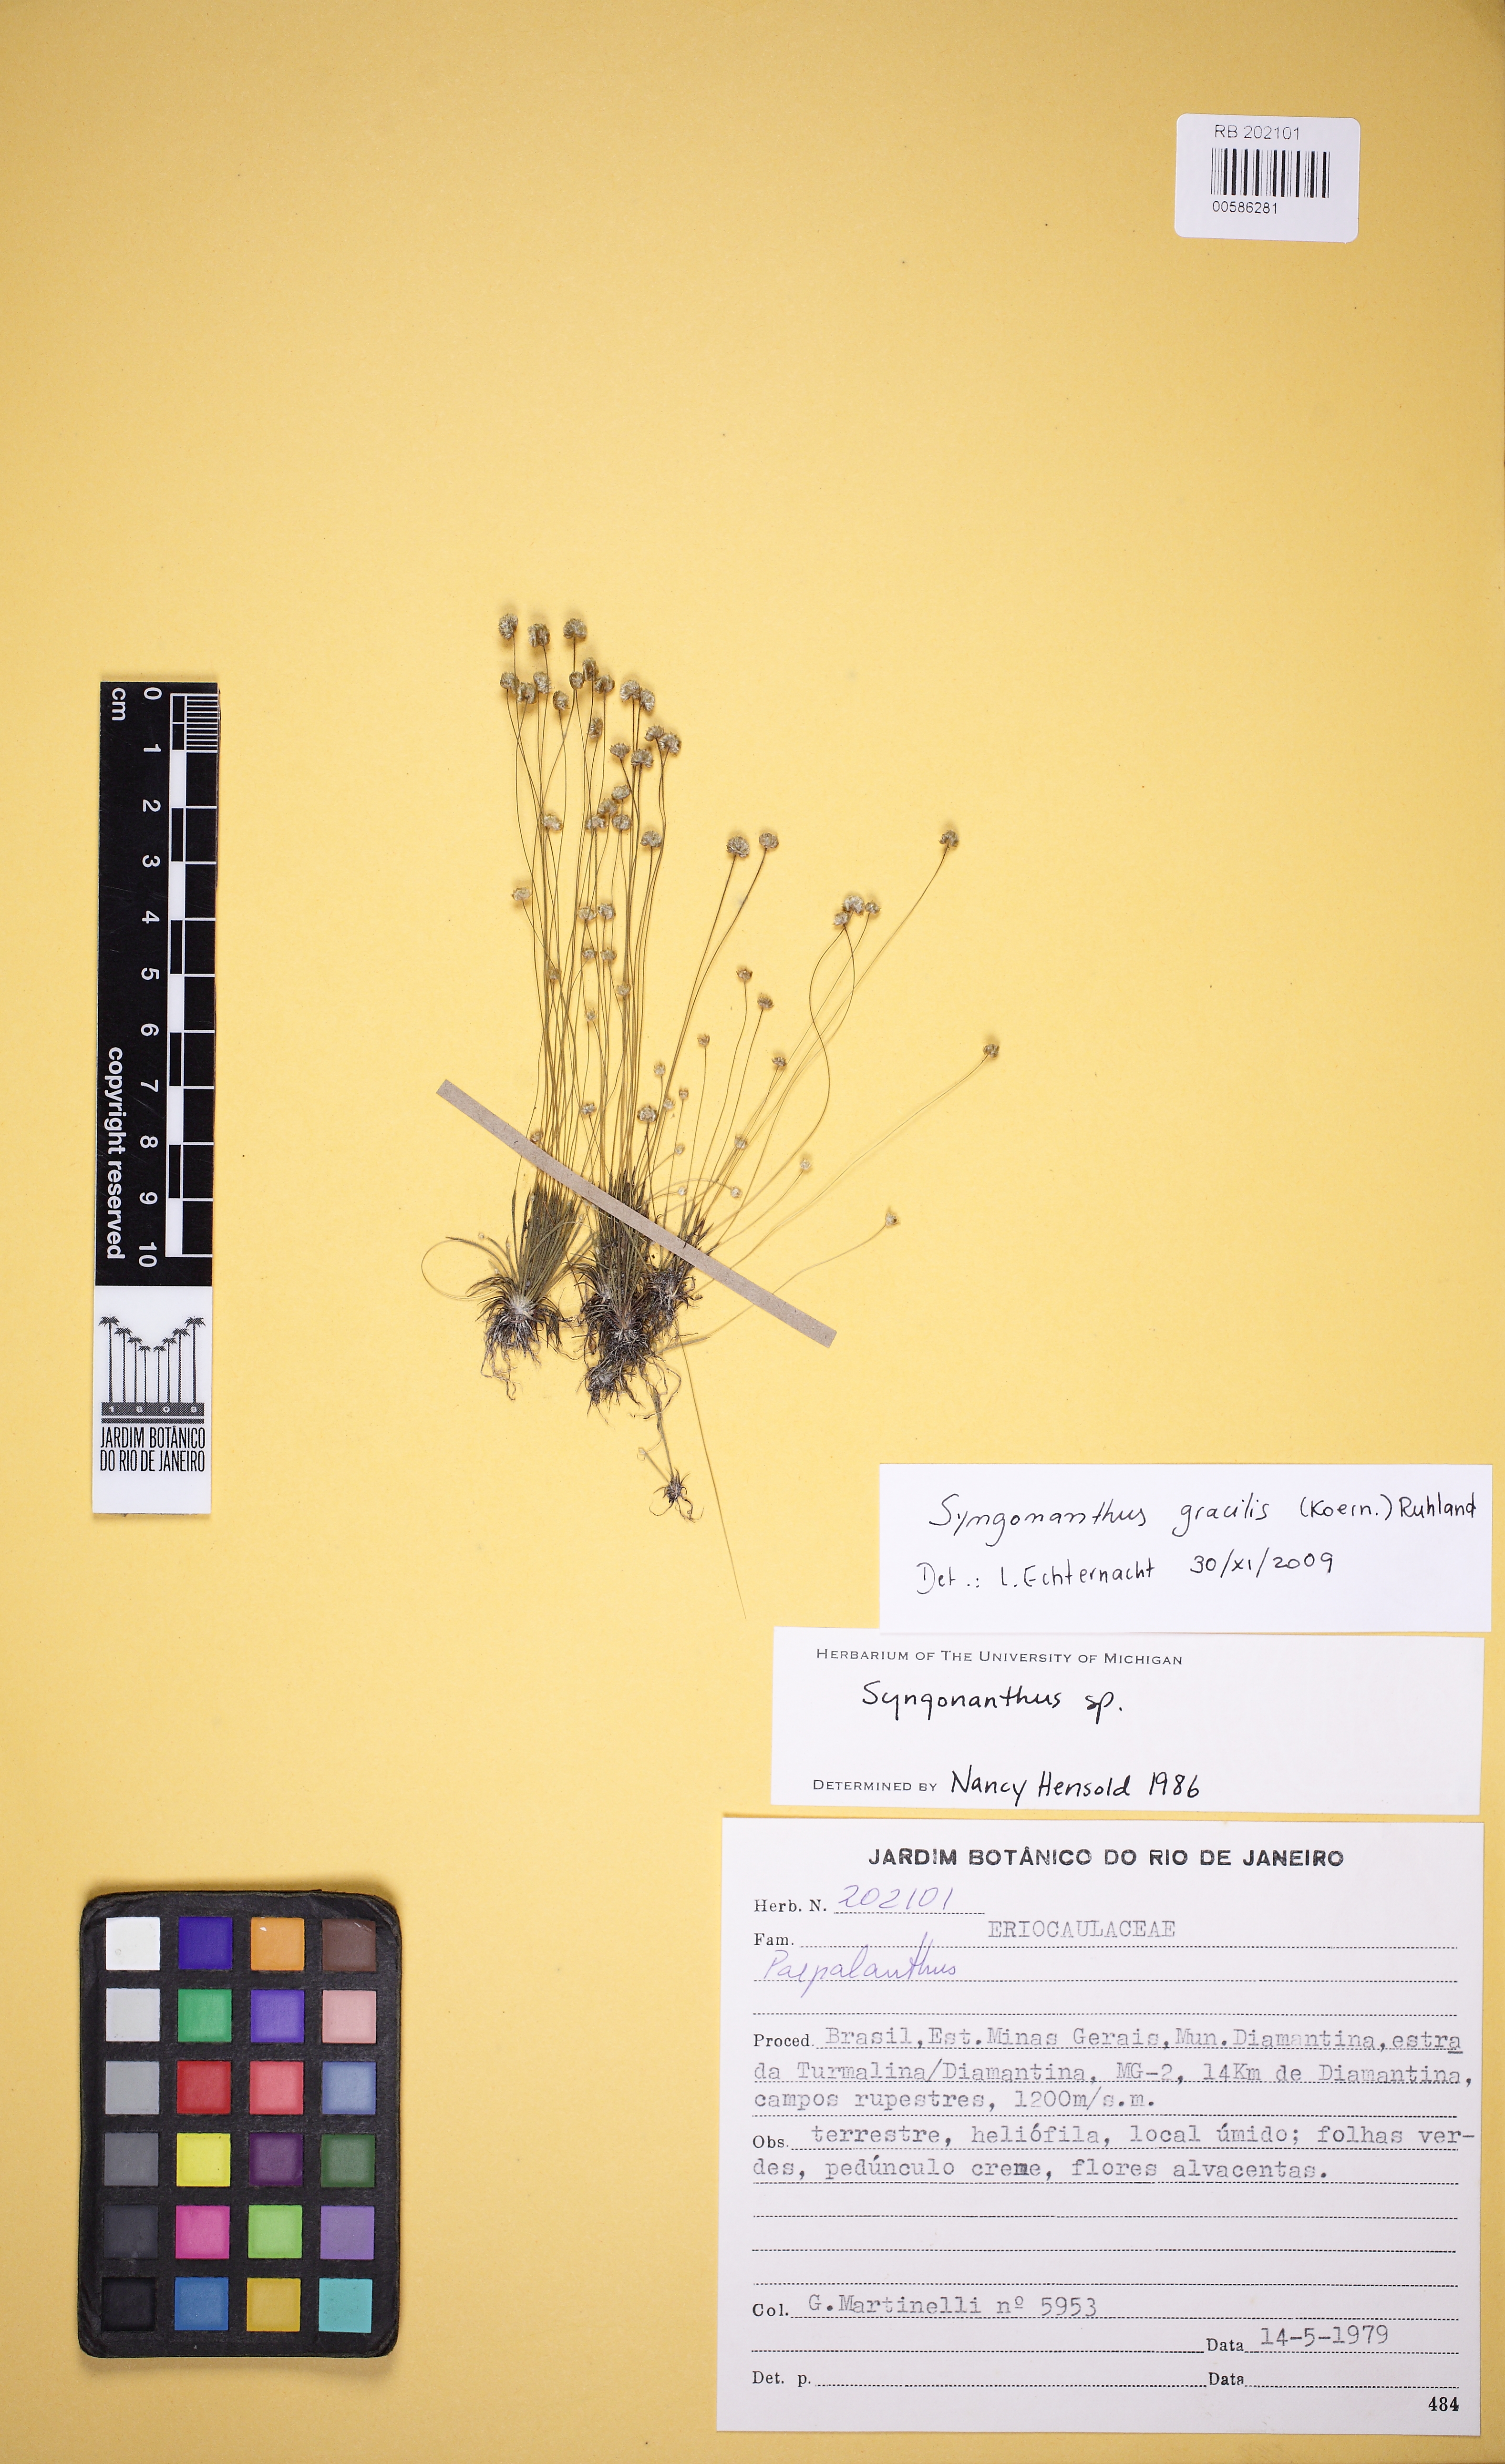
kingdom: Plantae
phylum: Tracheophyta
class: Liliopsida
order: Poales
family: Eriocaulaceae
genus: Syngonanthus
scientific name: Syngonanthus gracilis
